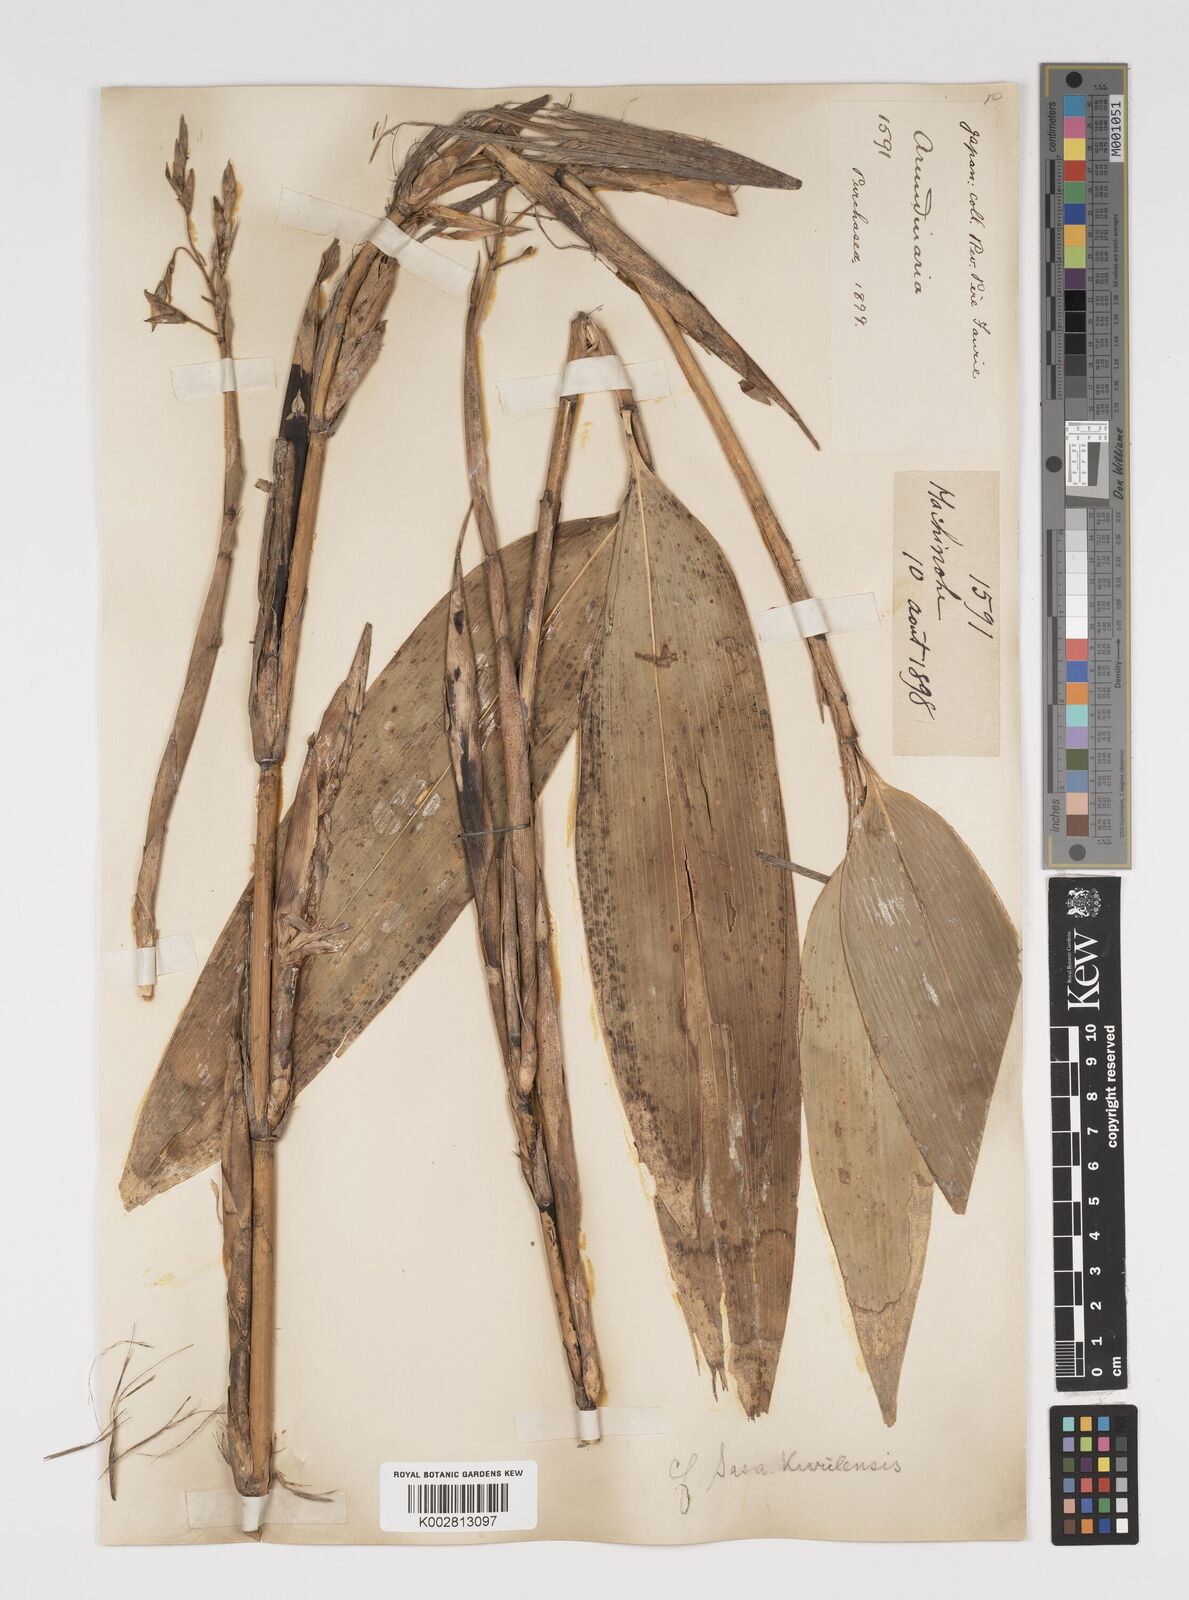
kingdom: Plantae
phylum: Tracheophyta
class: Liliopsida
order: Poales
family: Poaceae
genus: Sasa
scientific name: Sasa kurilensis
